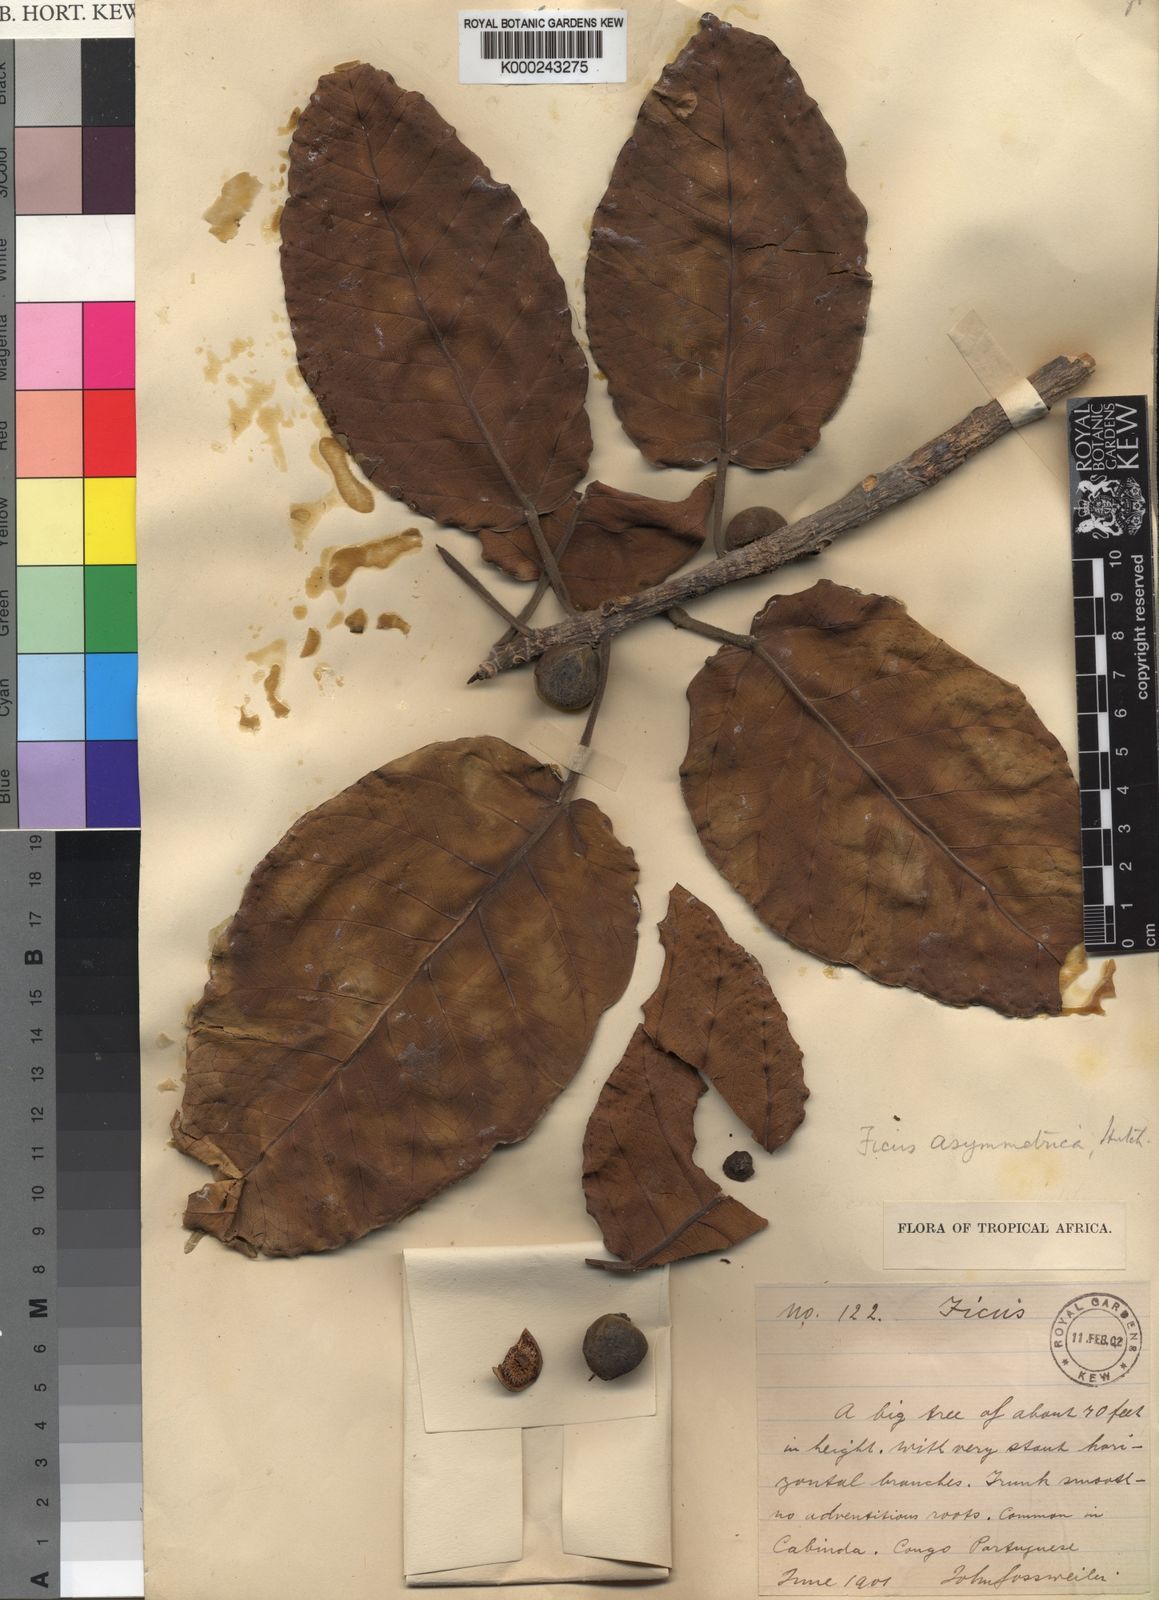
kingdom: Plantae
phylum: Tracheophyta
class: Magnoliopsida
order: Rosales
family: Moraceae
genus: Ficus
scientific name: Ficus
